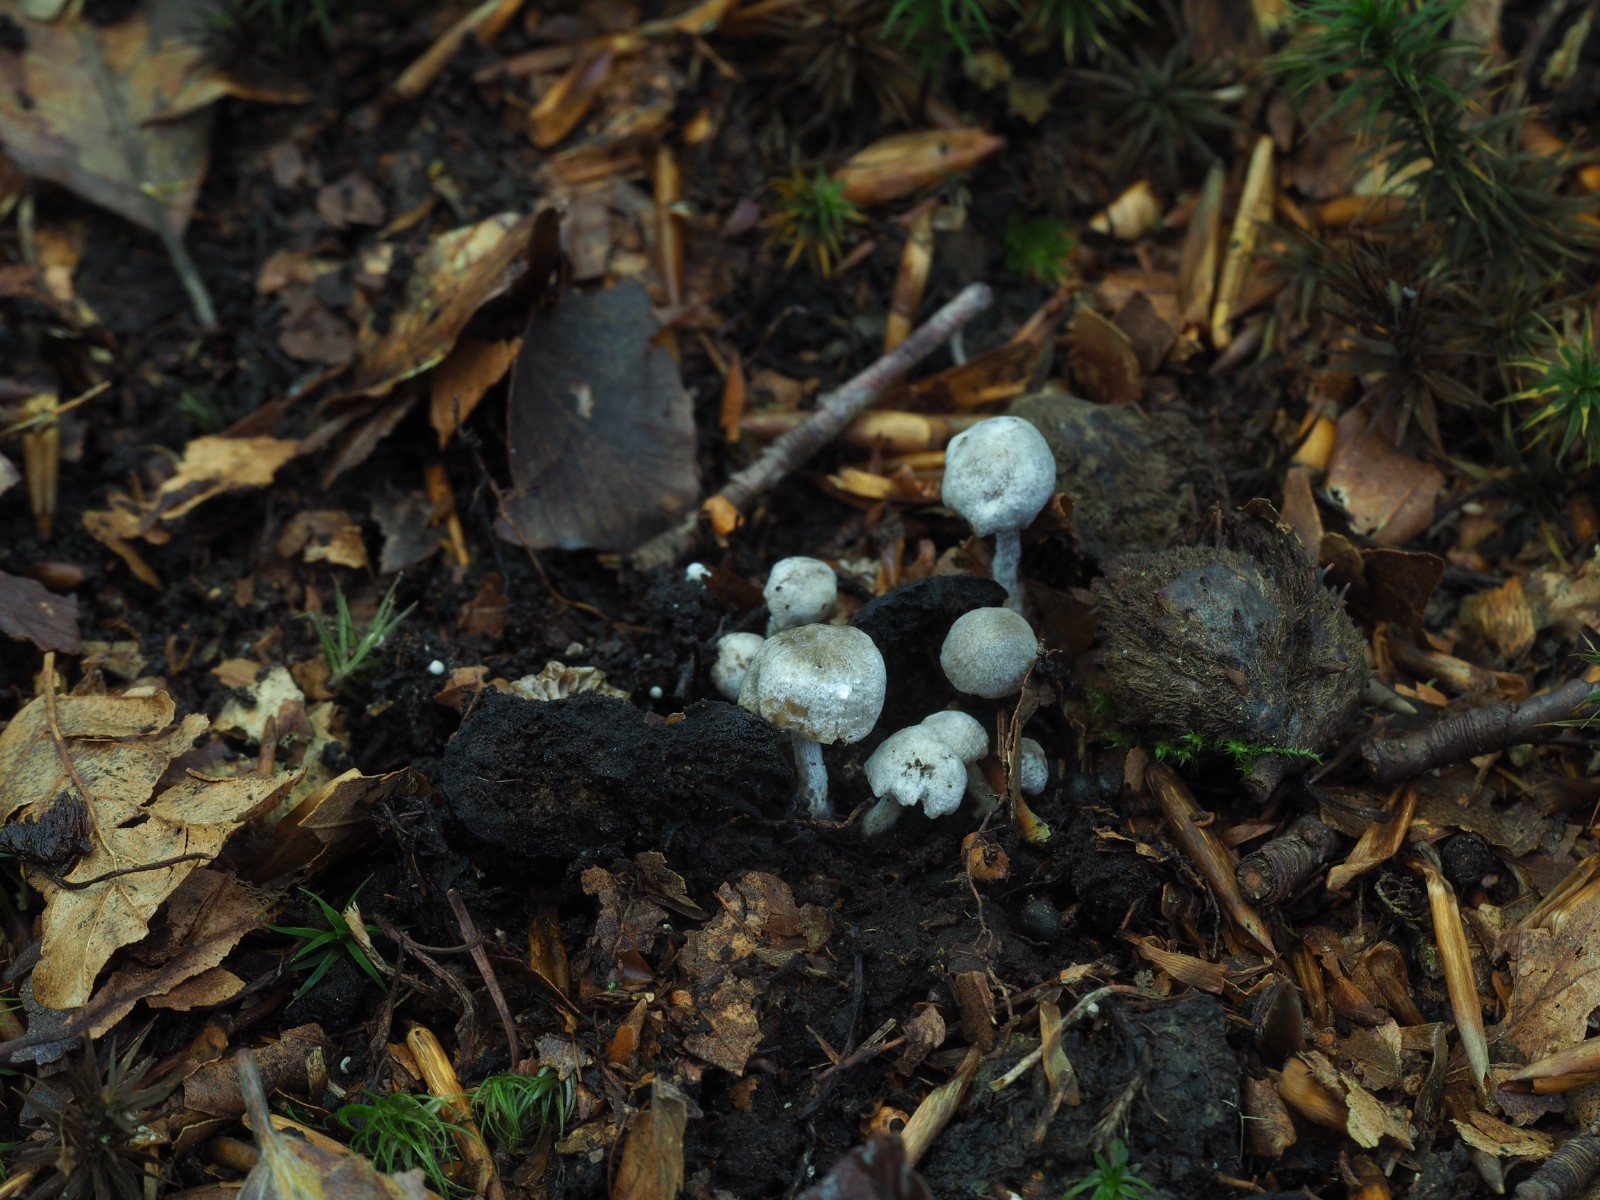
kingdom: Fungi
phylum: Basidiomycota
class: Agaricomycetes
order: Agaricales
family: Lyophyllaceae
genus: Asterophora
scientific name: Asterophora parasitica
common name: grå snyltehat
